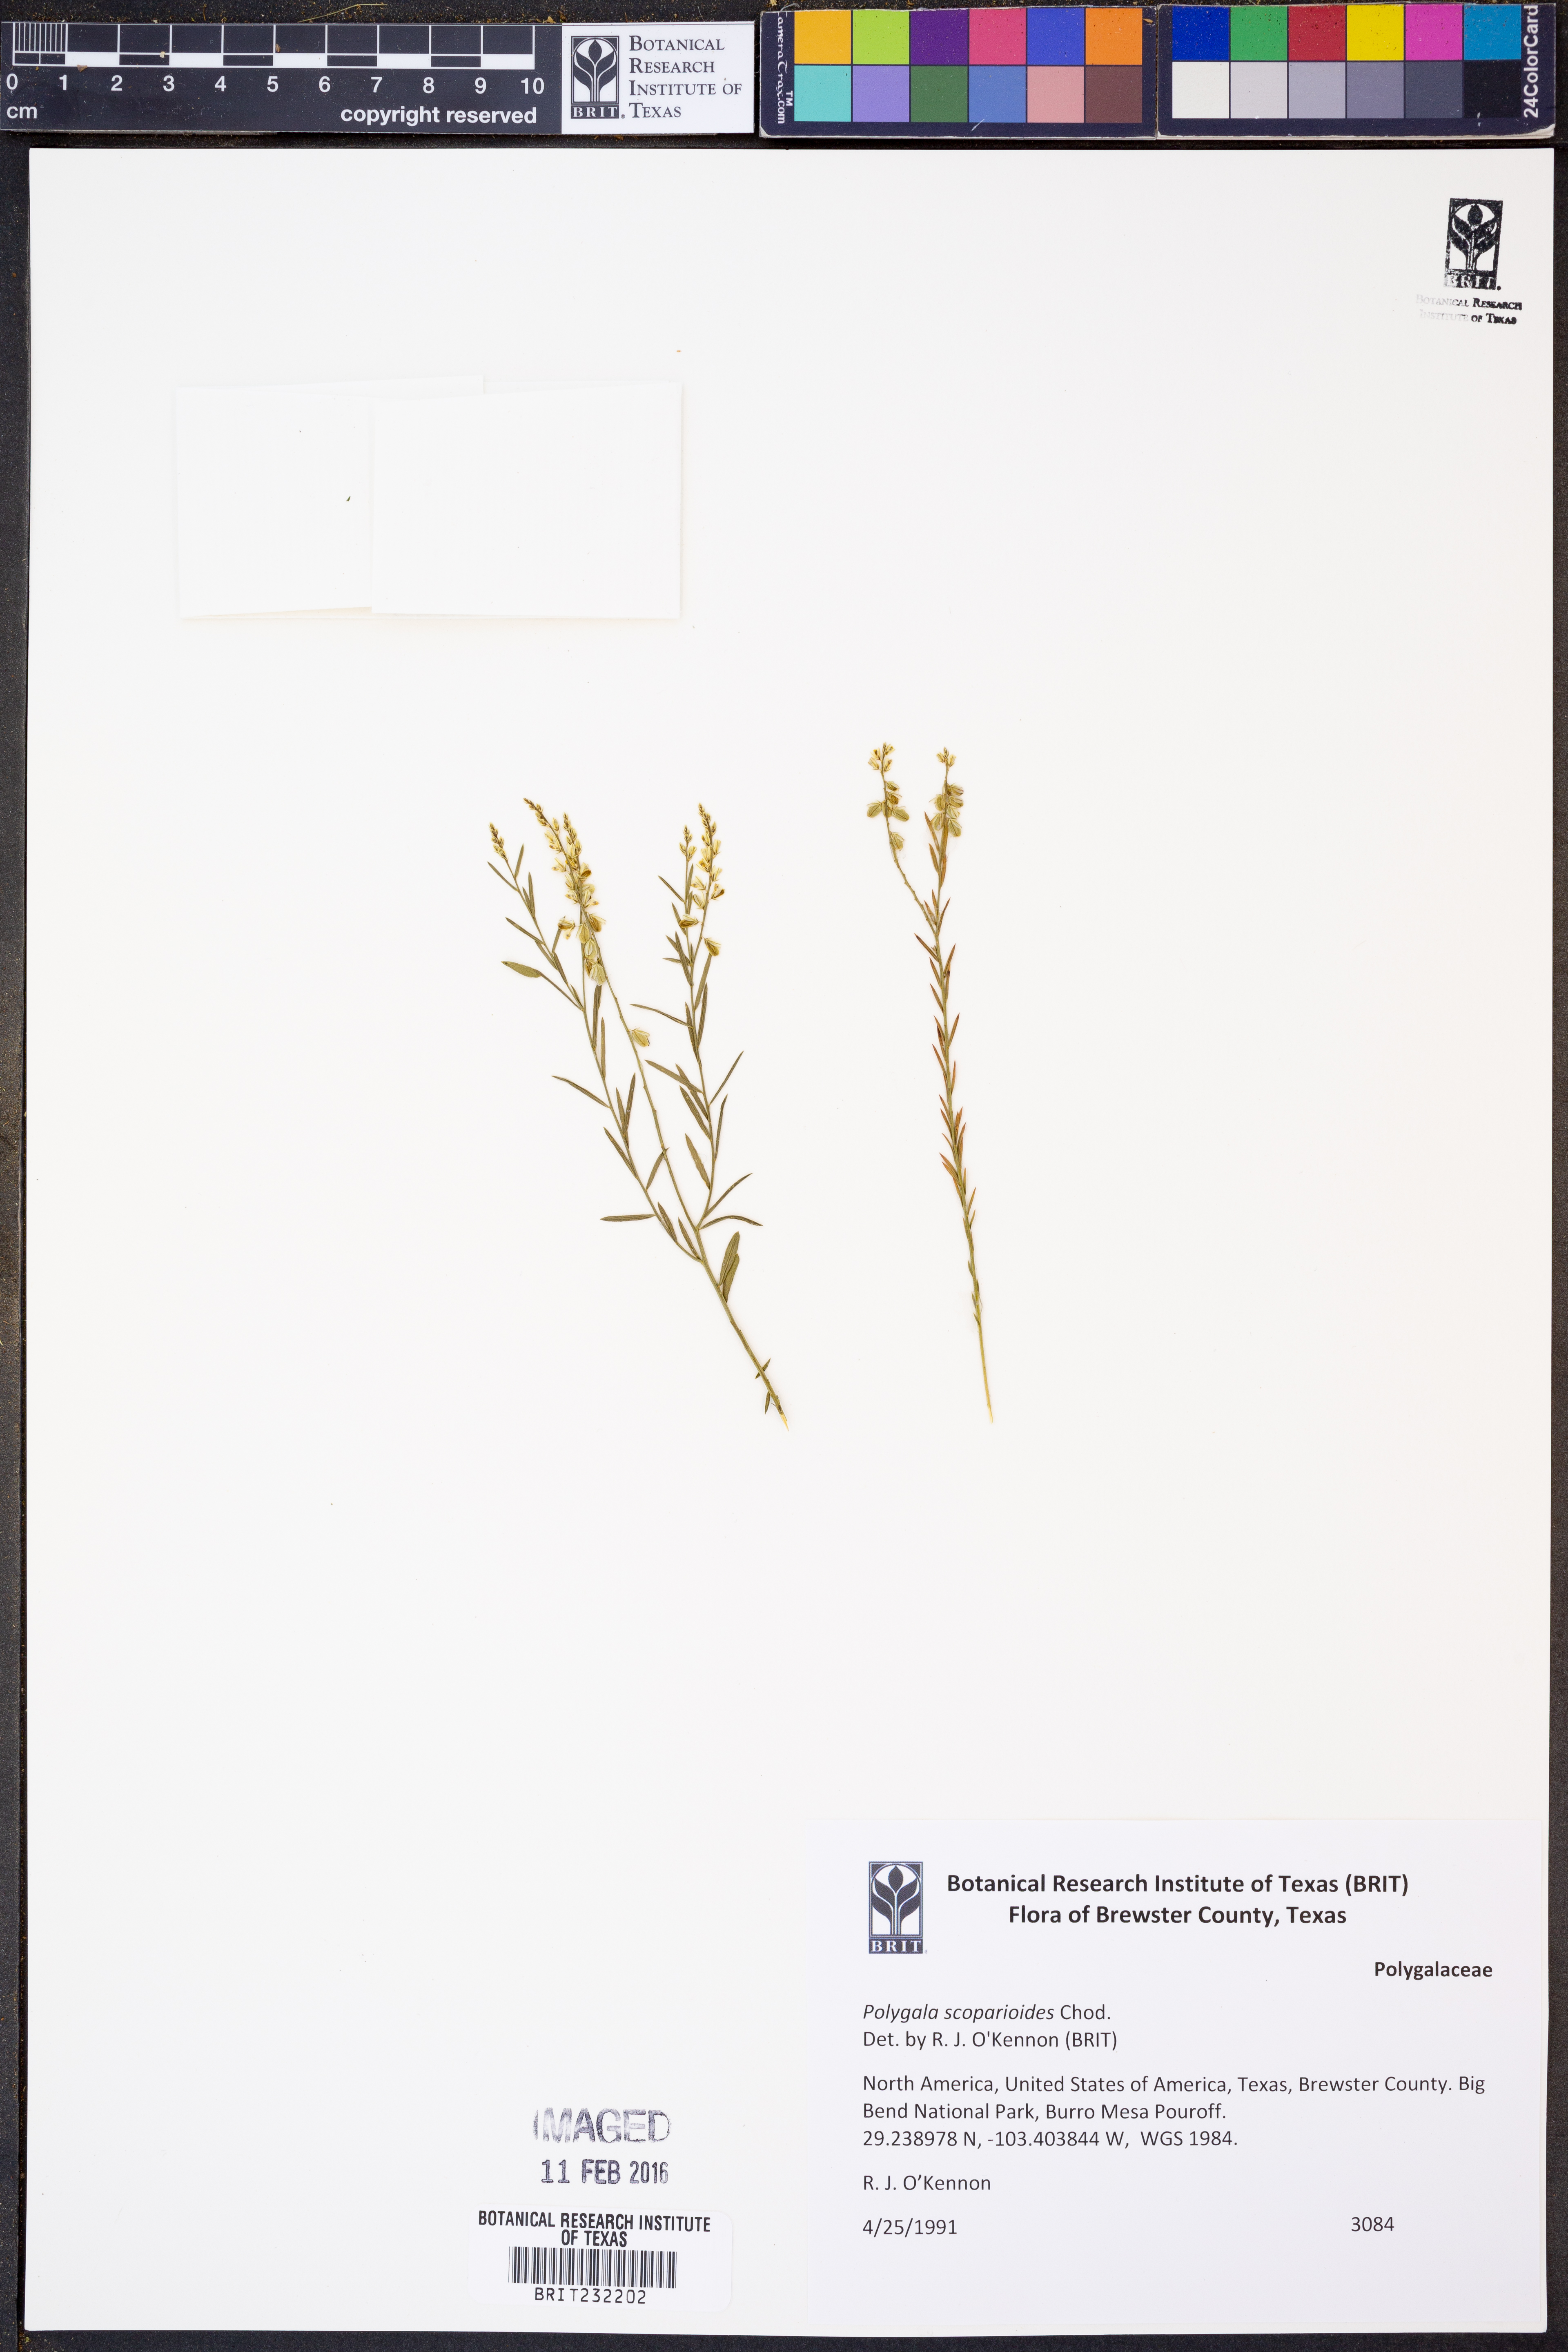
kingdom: Plantae
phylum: Tracheophyta
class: Magnoliopsida
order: Fabales
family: Polygalaceae
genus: Polygala
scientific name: Polygala scoparioides
